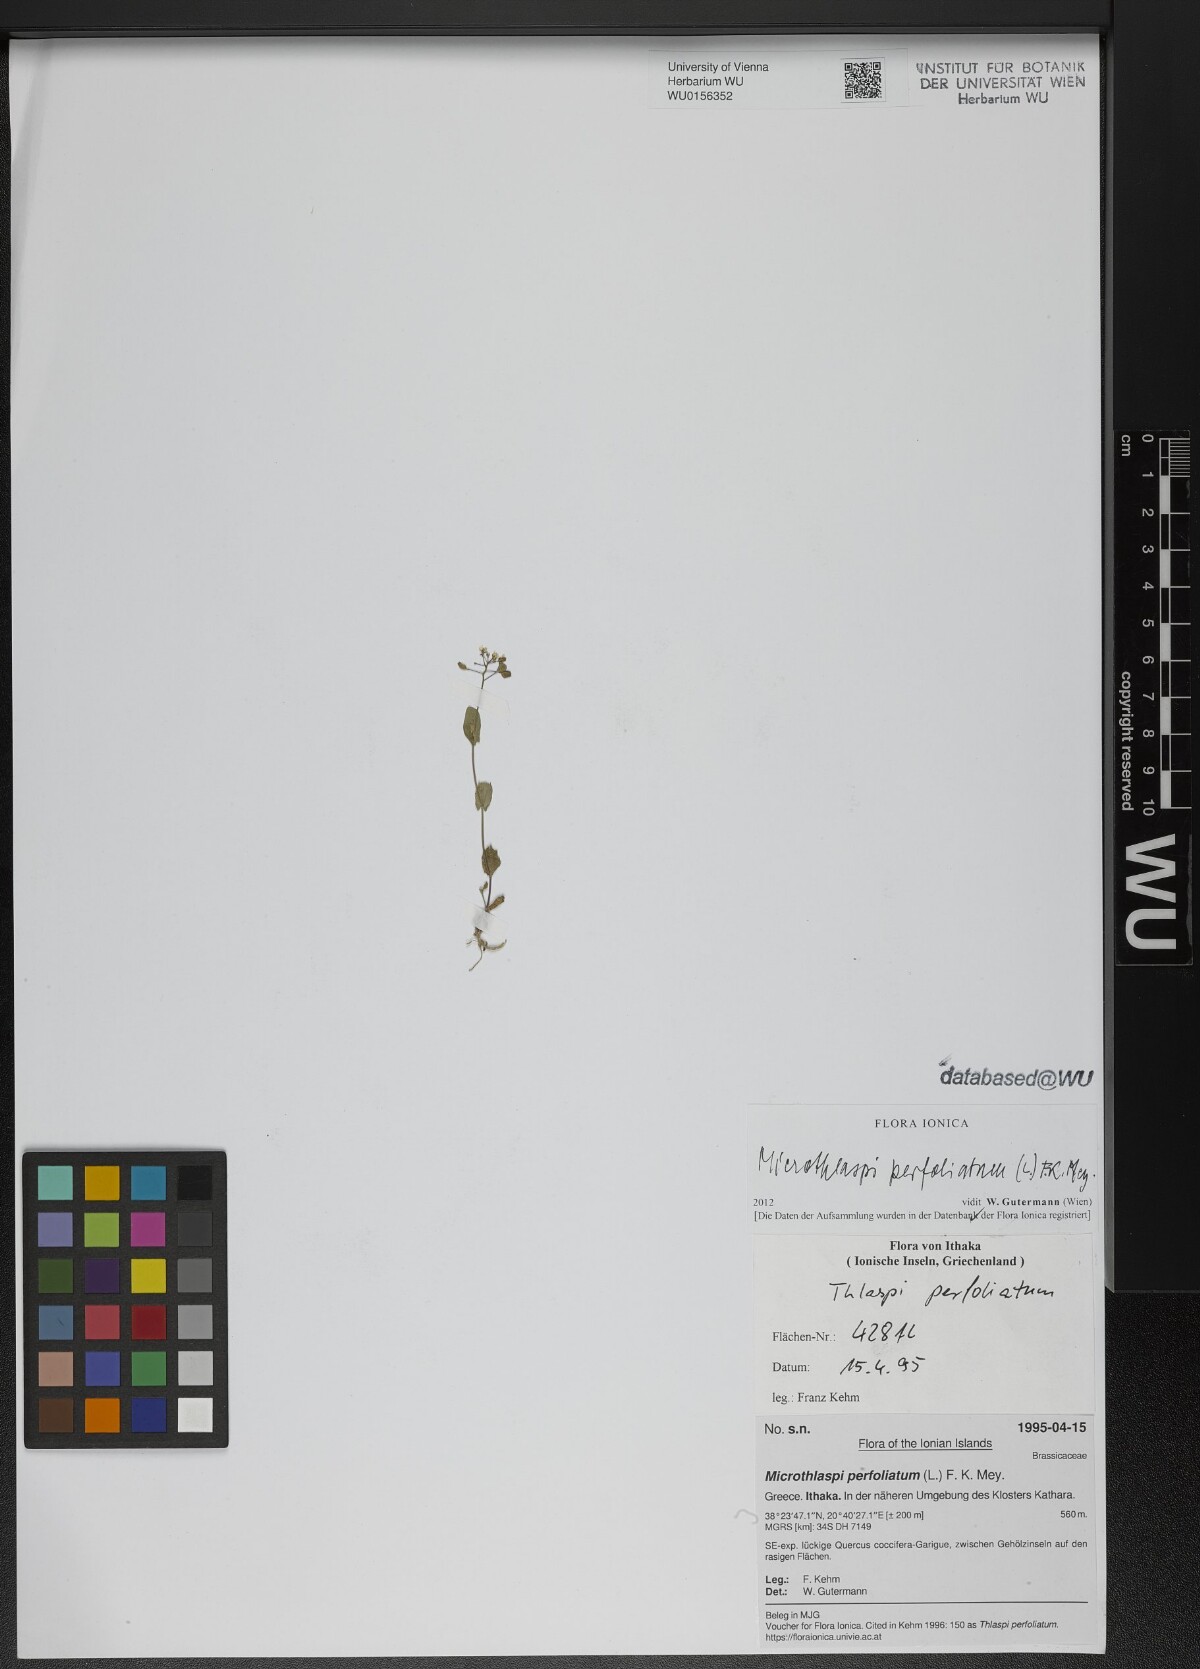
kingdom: Plantae
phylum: Tracheophyta
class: Magnoliopsida
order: Brassicales
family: Brassicaceae
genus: Noccaea
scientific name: Noccaea perfoliata
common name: Perfoliate pennycress
